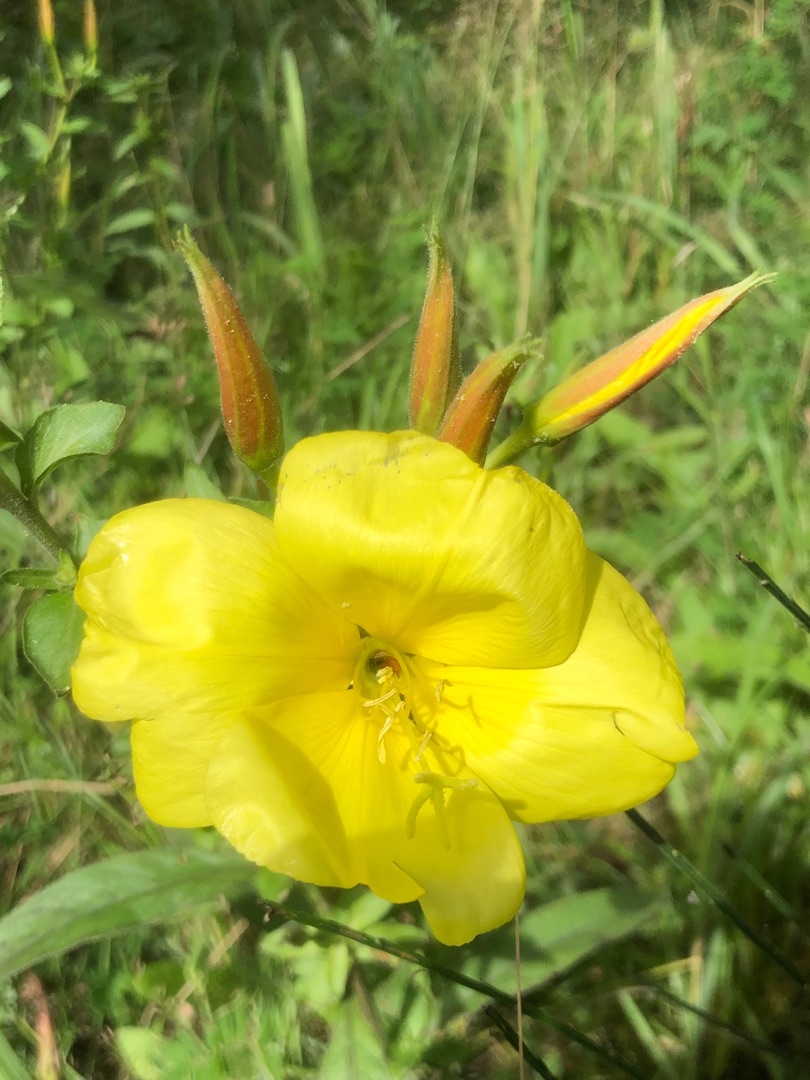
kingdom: Plantae
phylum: Tracheophyta
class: Magnoliopsida
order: Myrtales
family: Onagraceae
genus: Oenothera
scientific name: Oenothera glazioviana
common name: Kæmpe-natlys
